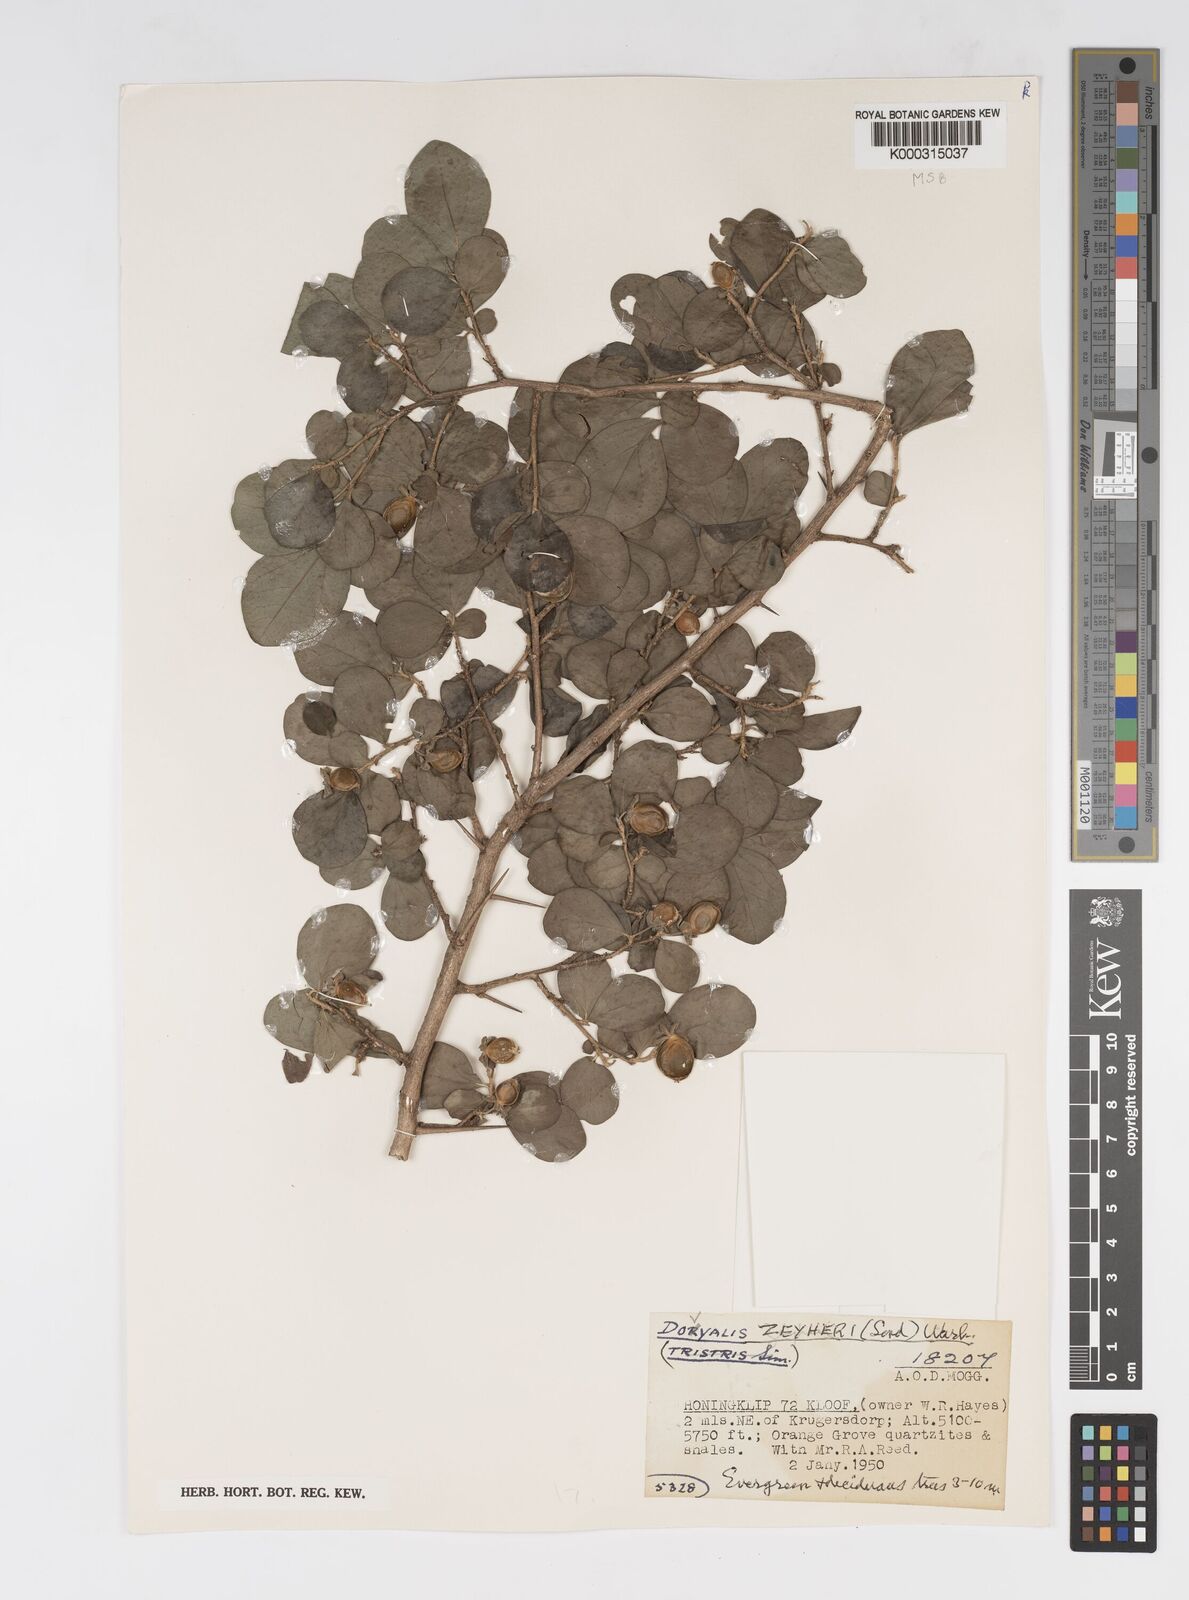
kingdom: Plantae
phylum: Tracheophyta
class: Magnoliopsida
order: Malpighiales
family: Salicaceae
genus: Dovyalis
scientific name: Dovyalis zeyheri
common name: Apricot sourberry
